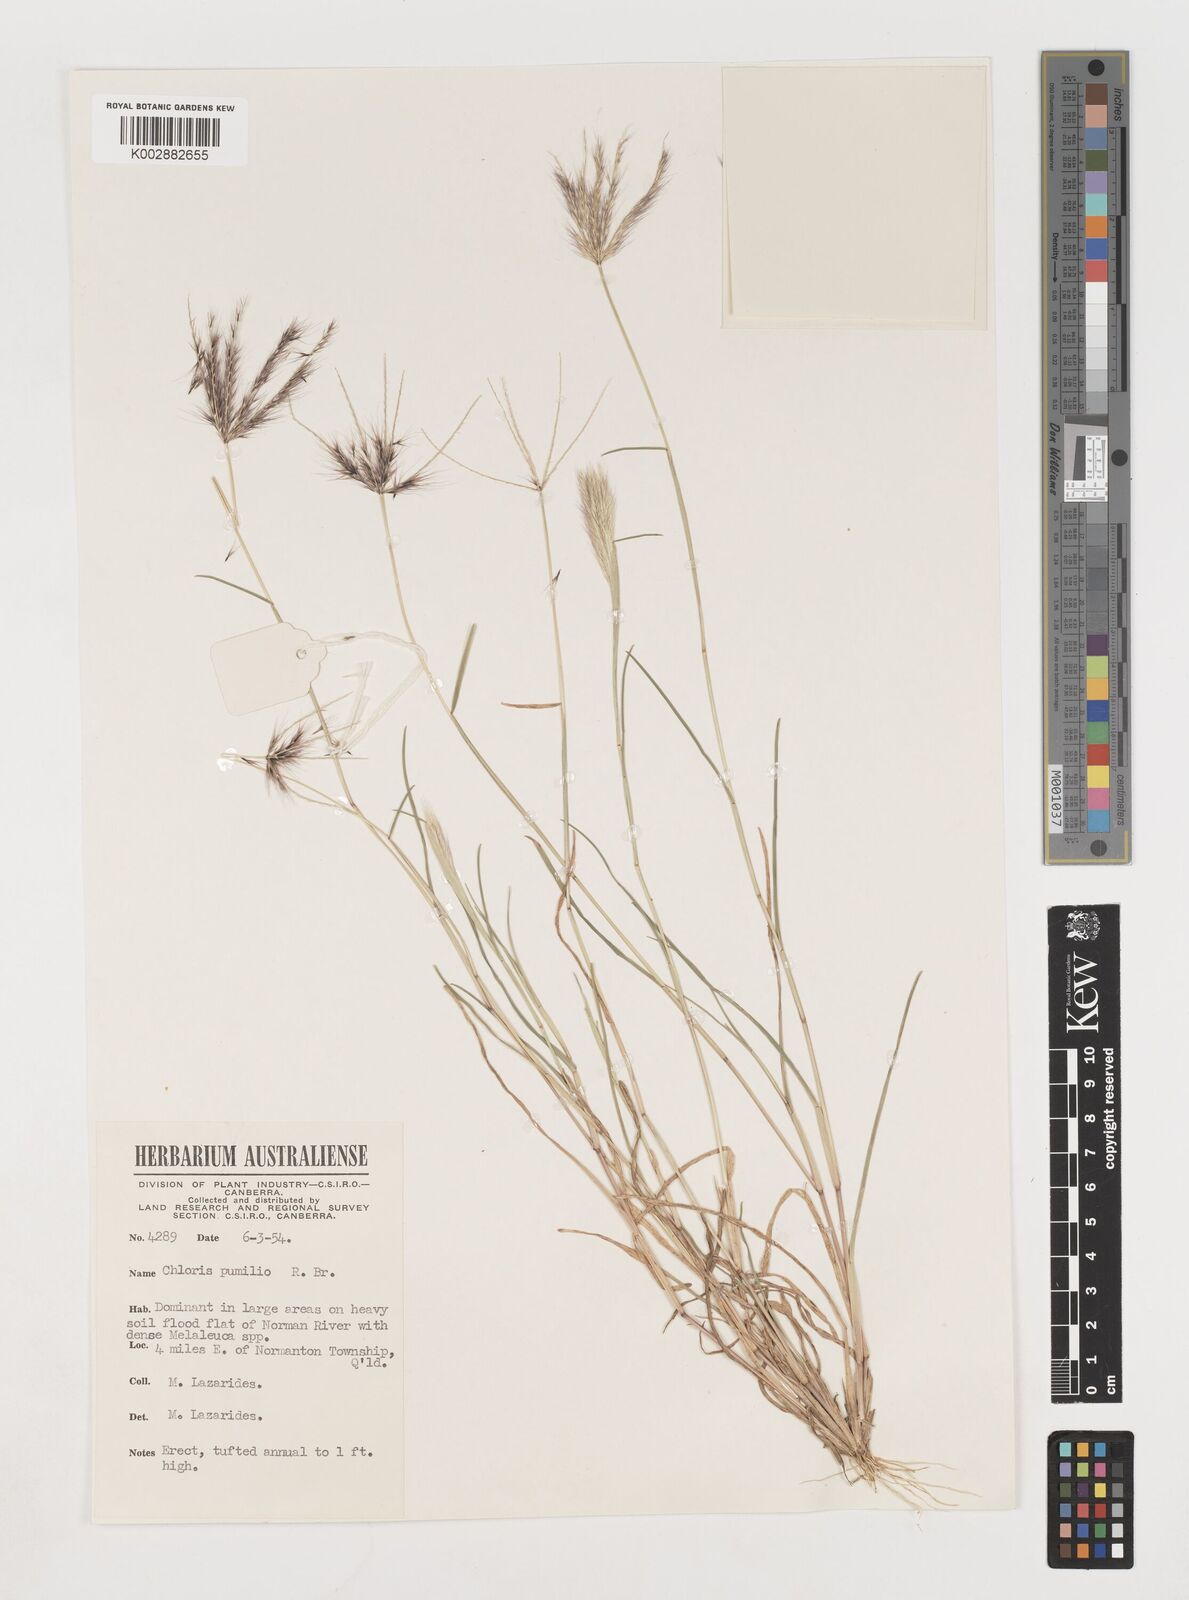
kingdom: Plantae
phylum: Tracheophyta
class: Liliopsida
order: Poales
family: Poaceae
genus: Chloris
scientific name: Chloris lobata
